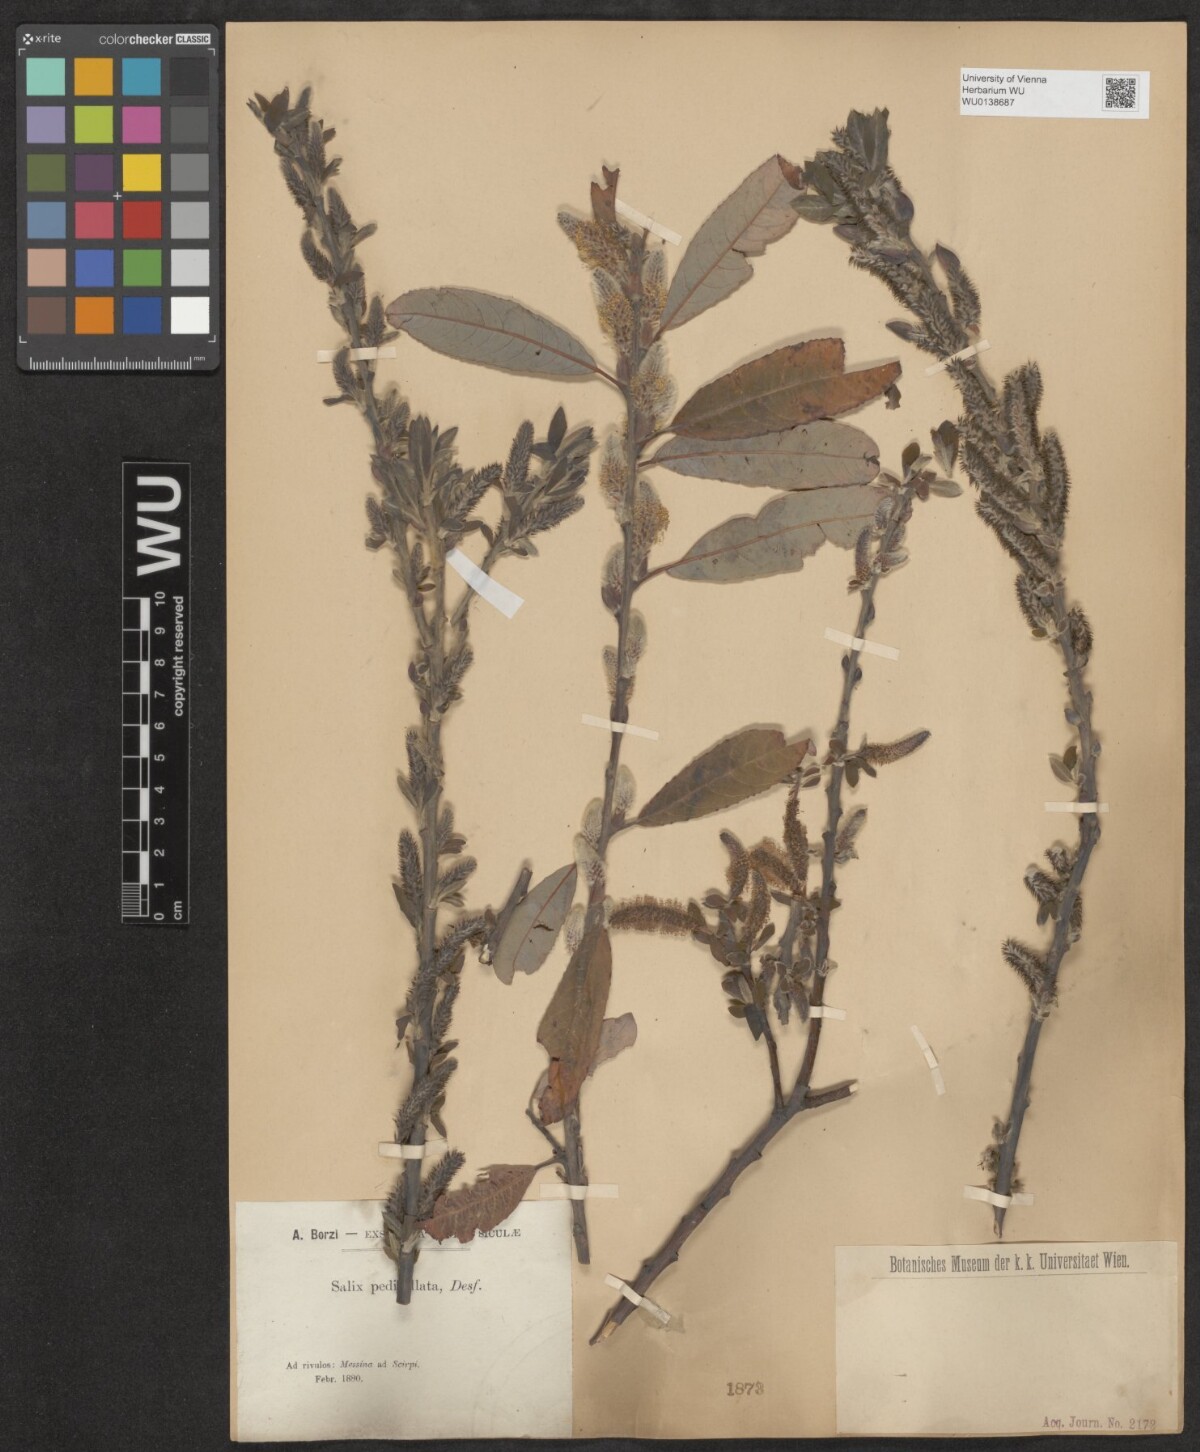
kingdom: Plantae
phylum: Tracheophyta
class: Magnoliopsida
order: Malpighiales
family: Salicaceae
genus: Salix
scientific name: Salix pedicellata
